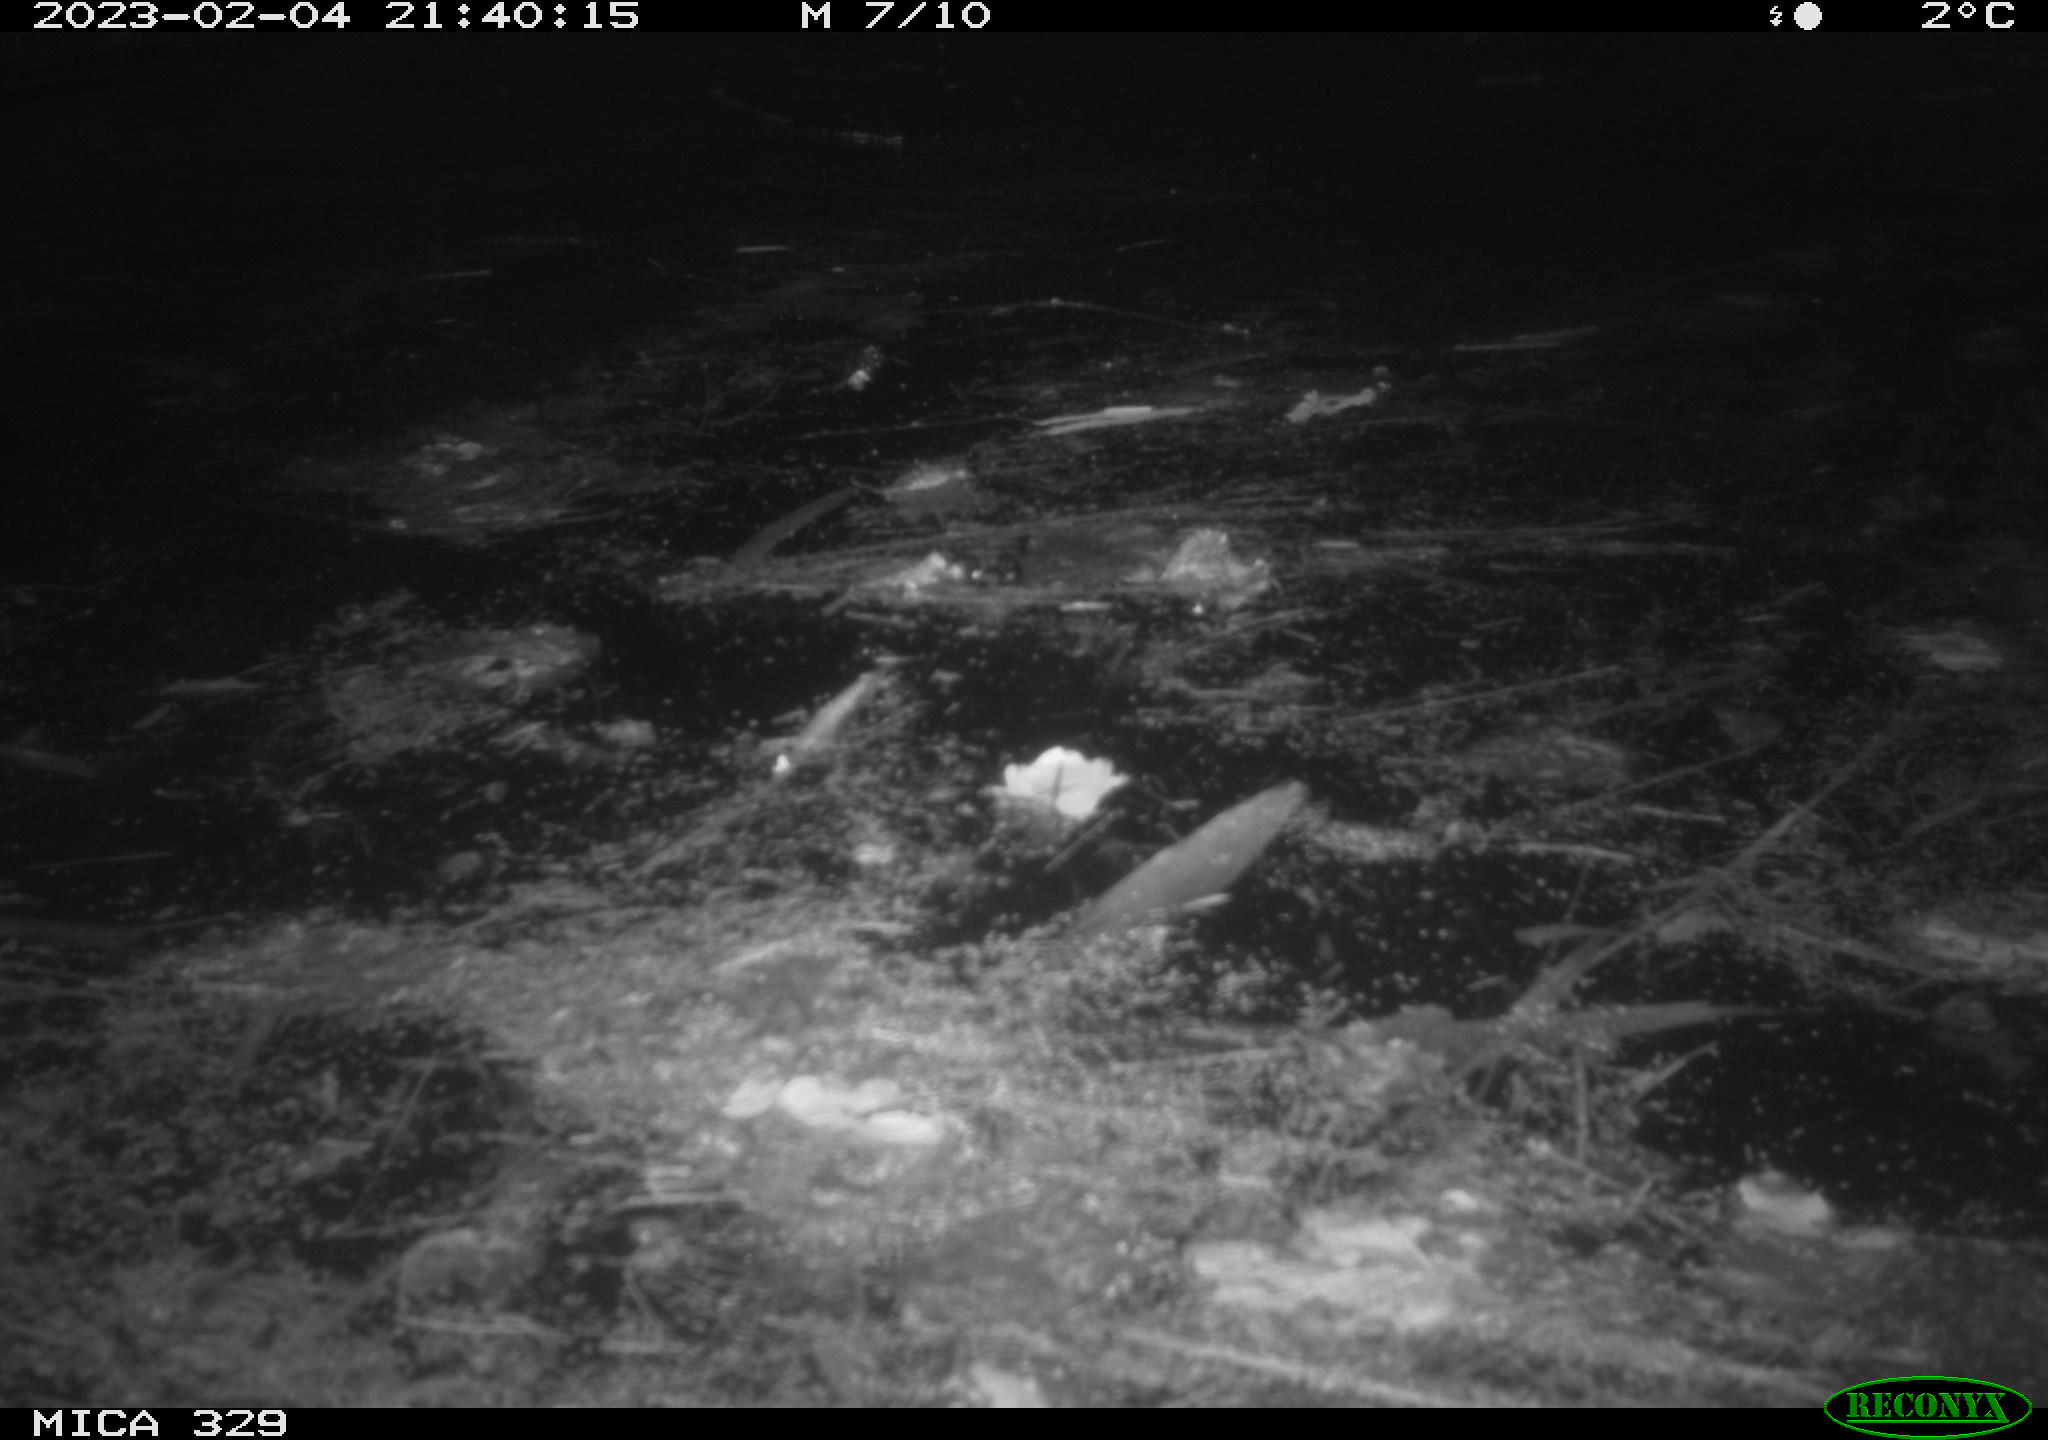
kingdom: Animalia
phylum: Chordata
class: Mammalia
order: Rodentia
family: Cricetidae
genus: Ondatra
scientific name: Ondatra zibethicus
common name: Muskrat
